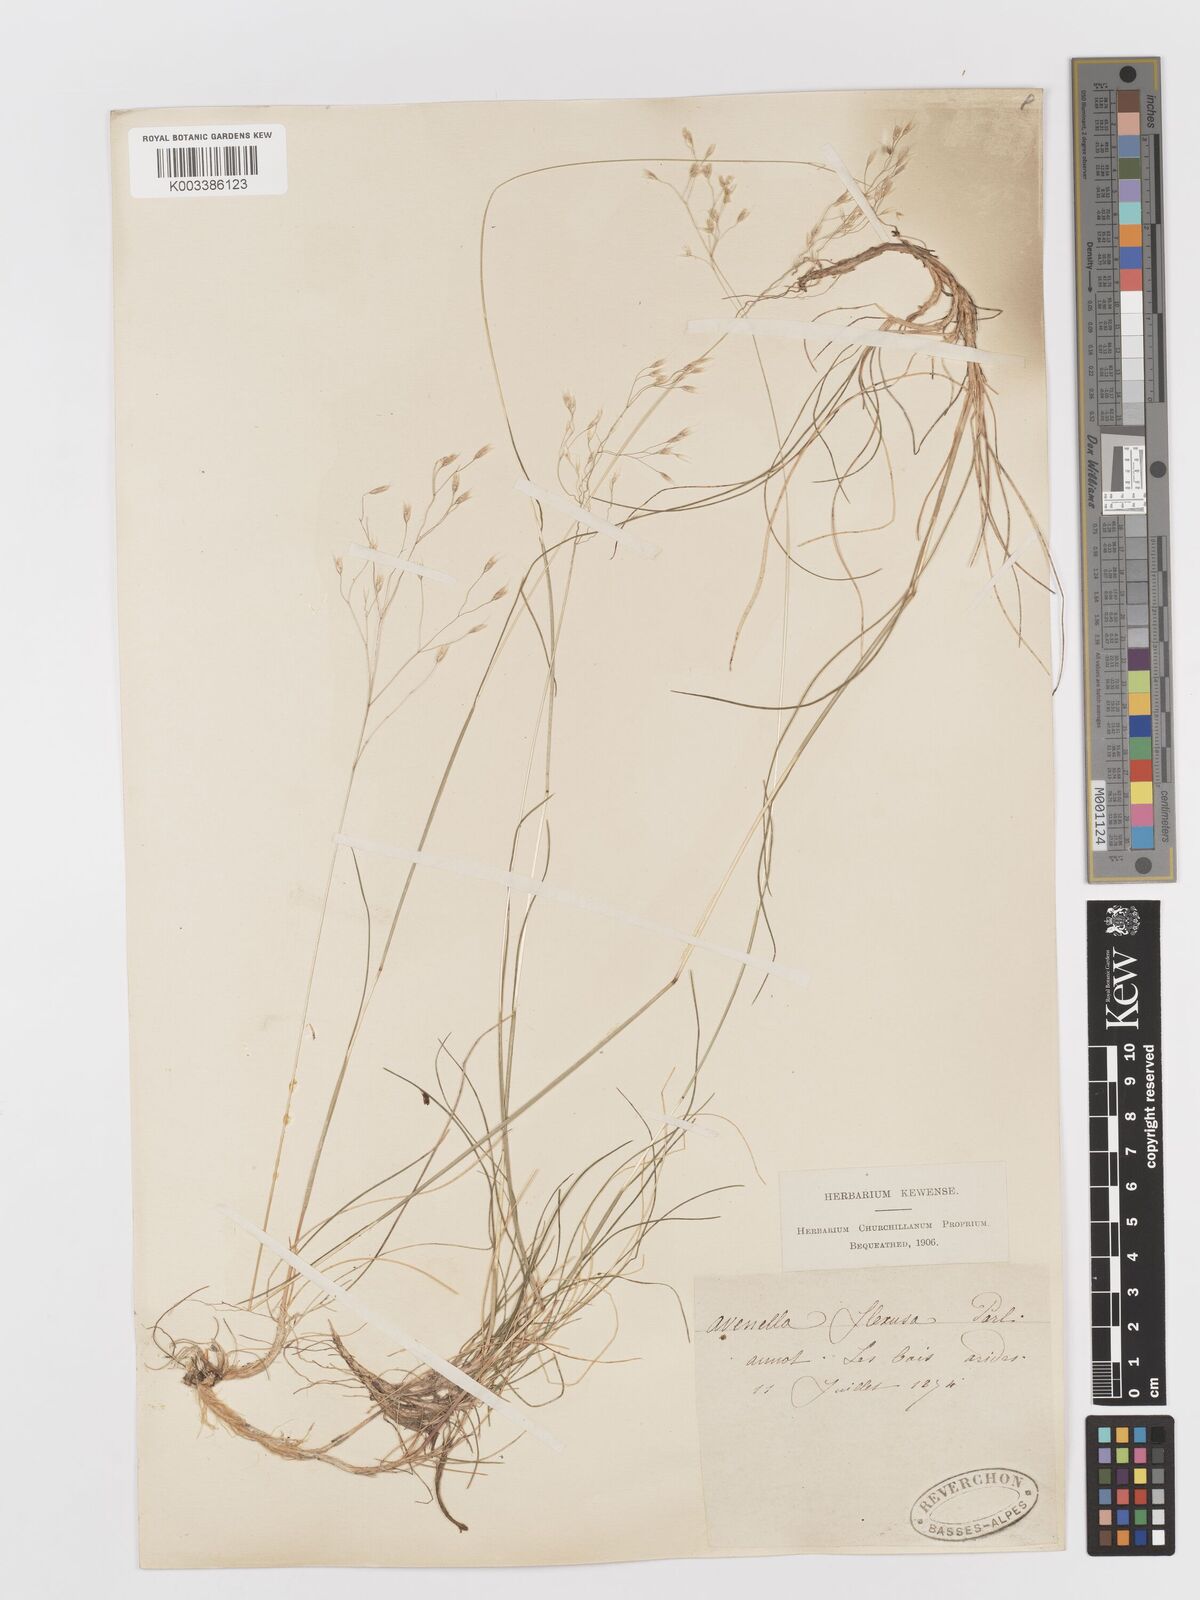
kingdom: Plantae
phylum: Tracheophyta
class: Liliopsida
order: Poales
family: Poaceae
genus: Avenella
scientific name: Avenella flexuosa
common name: Wavy hairgrass
